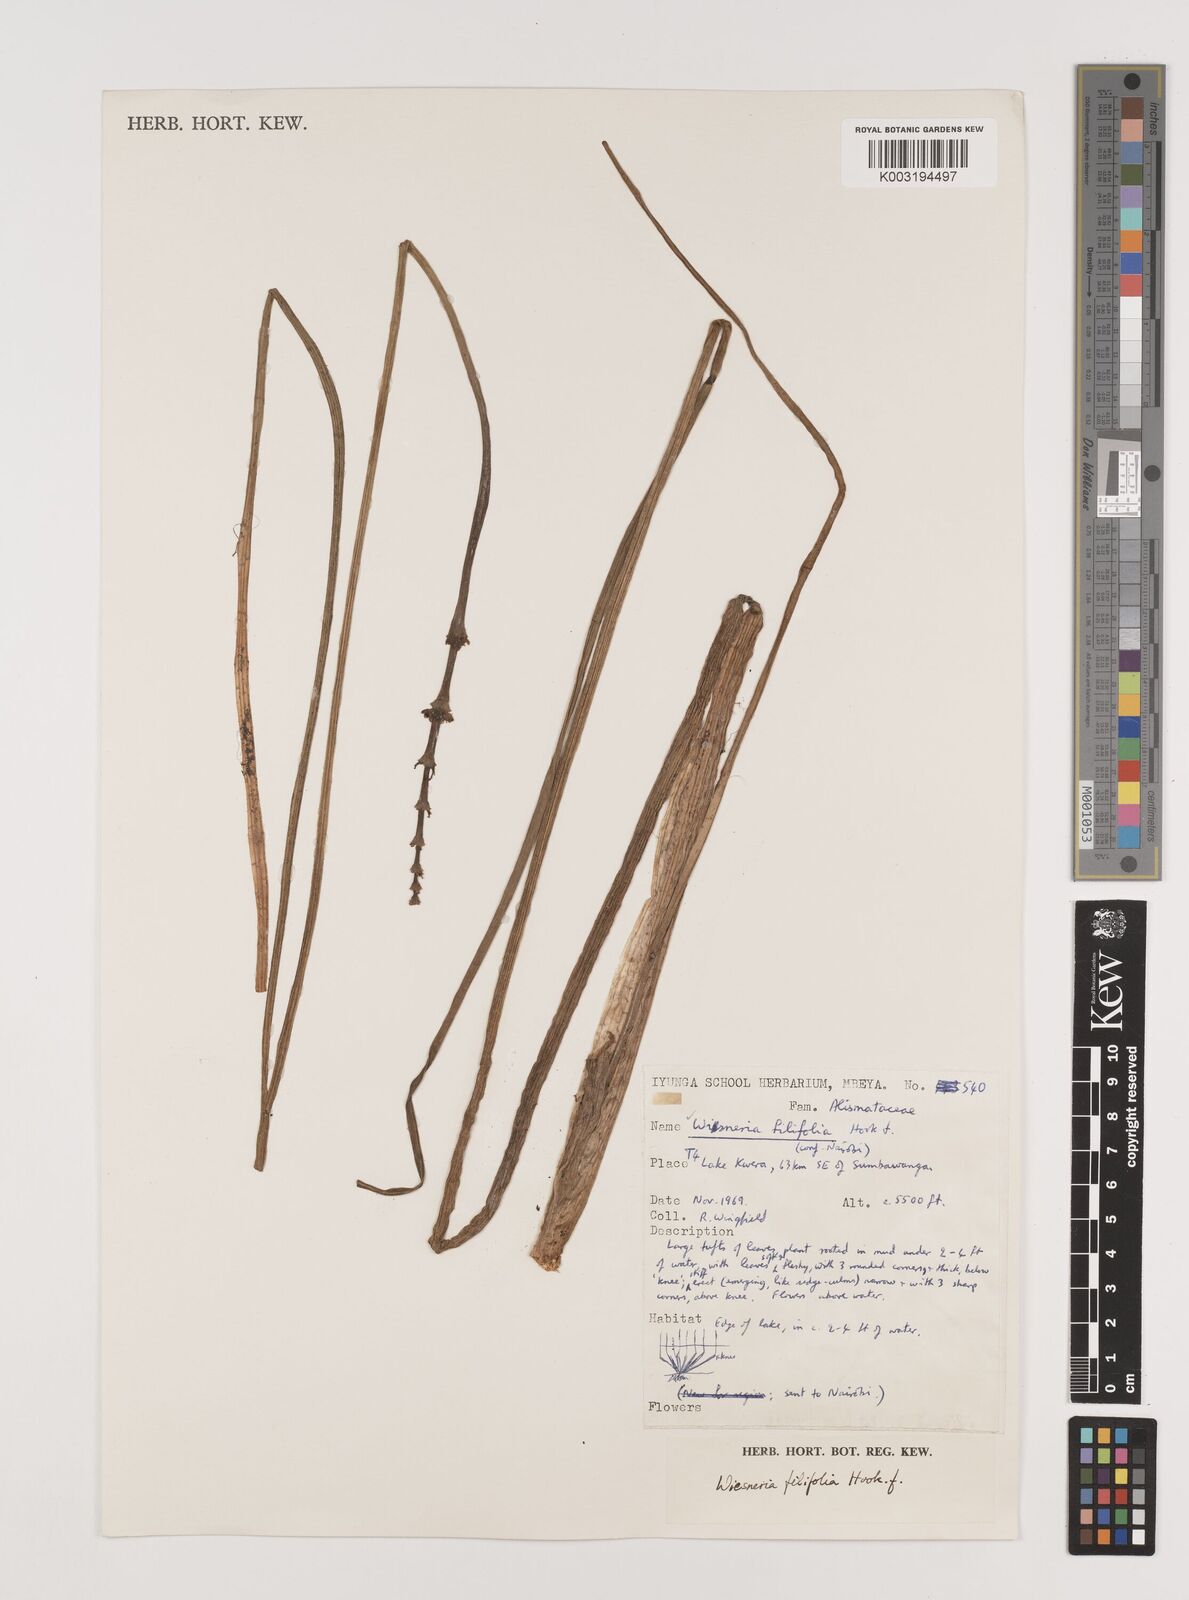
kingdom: Plantae
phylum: Tracheophyta
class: Liliopsida
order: Alismatales
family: Alismataceae
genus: Wiesneria
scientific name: Wiesneria filifolia
